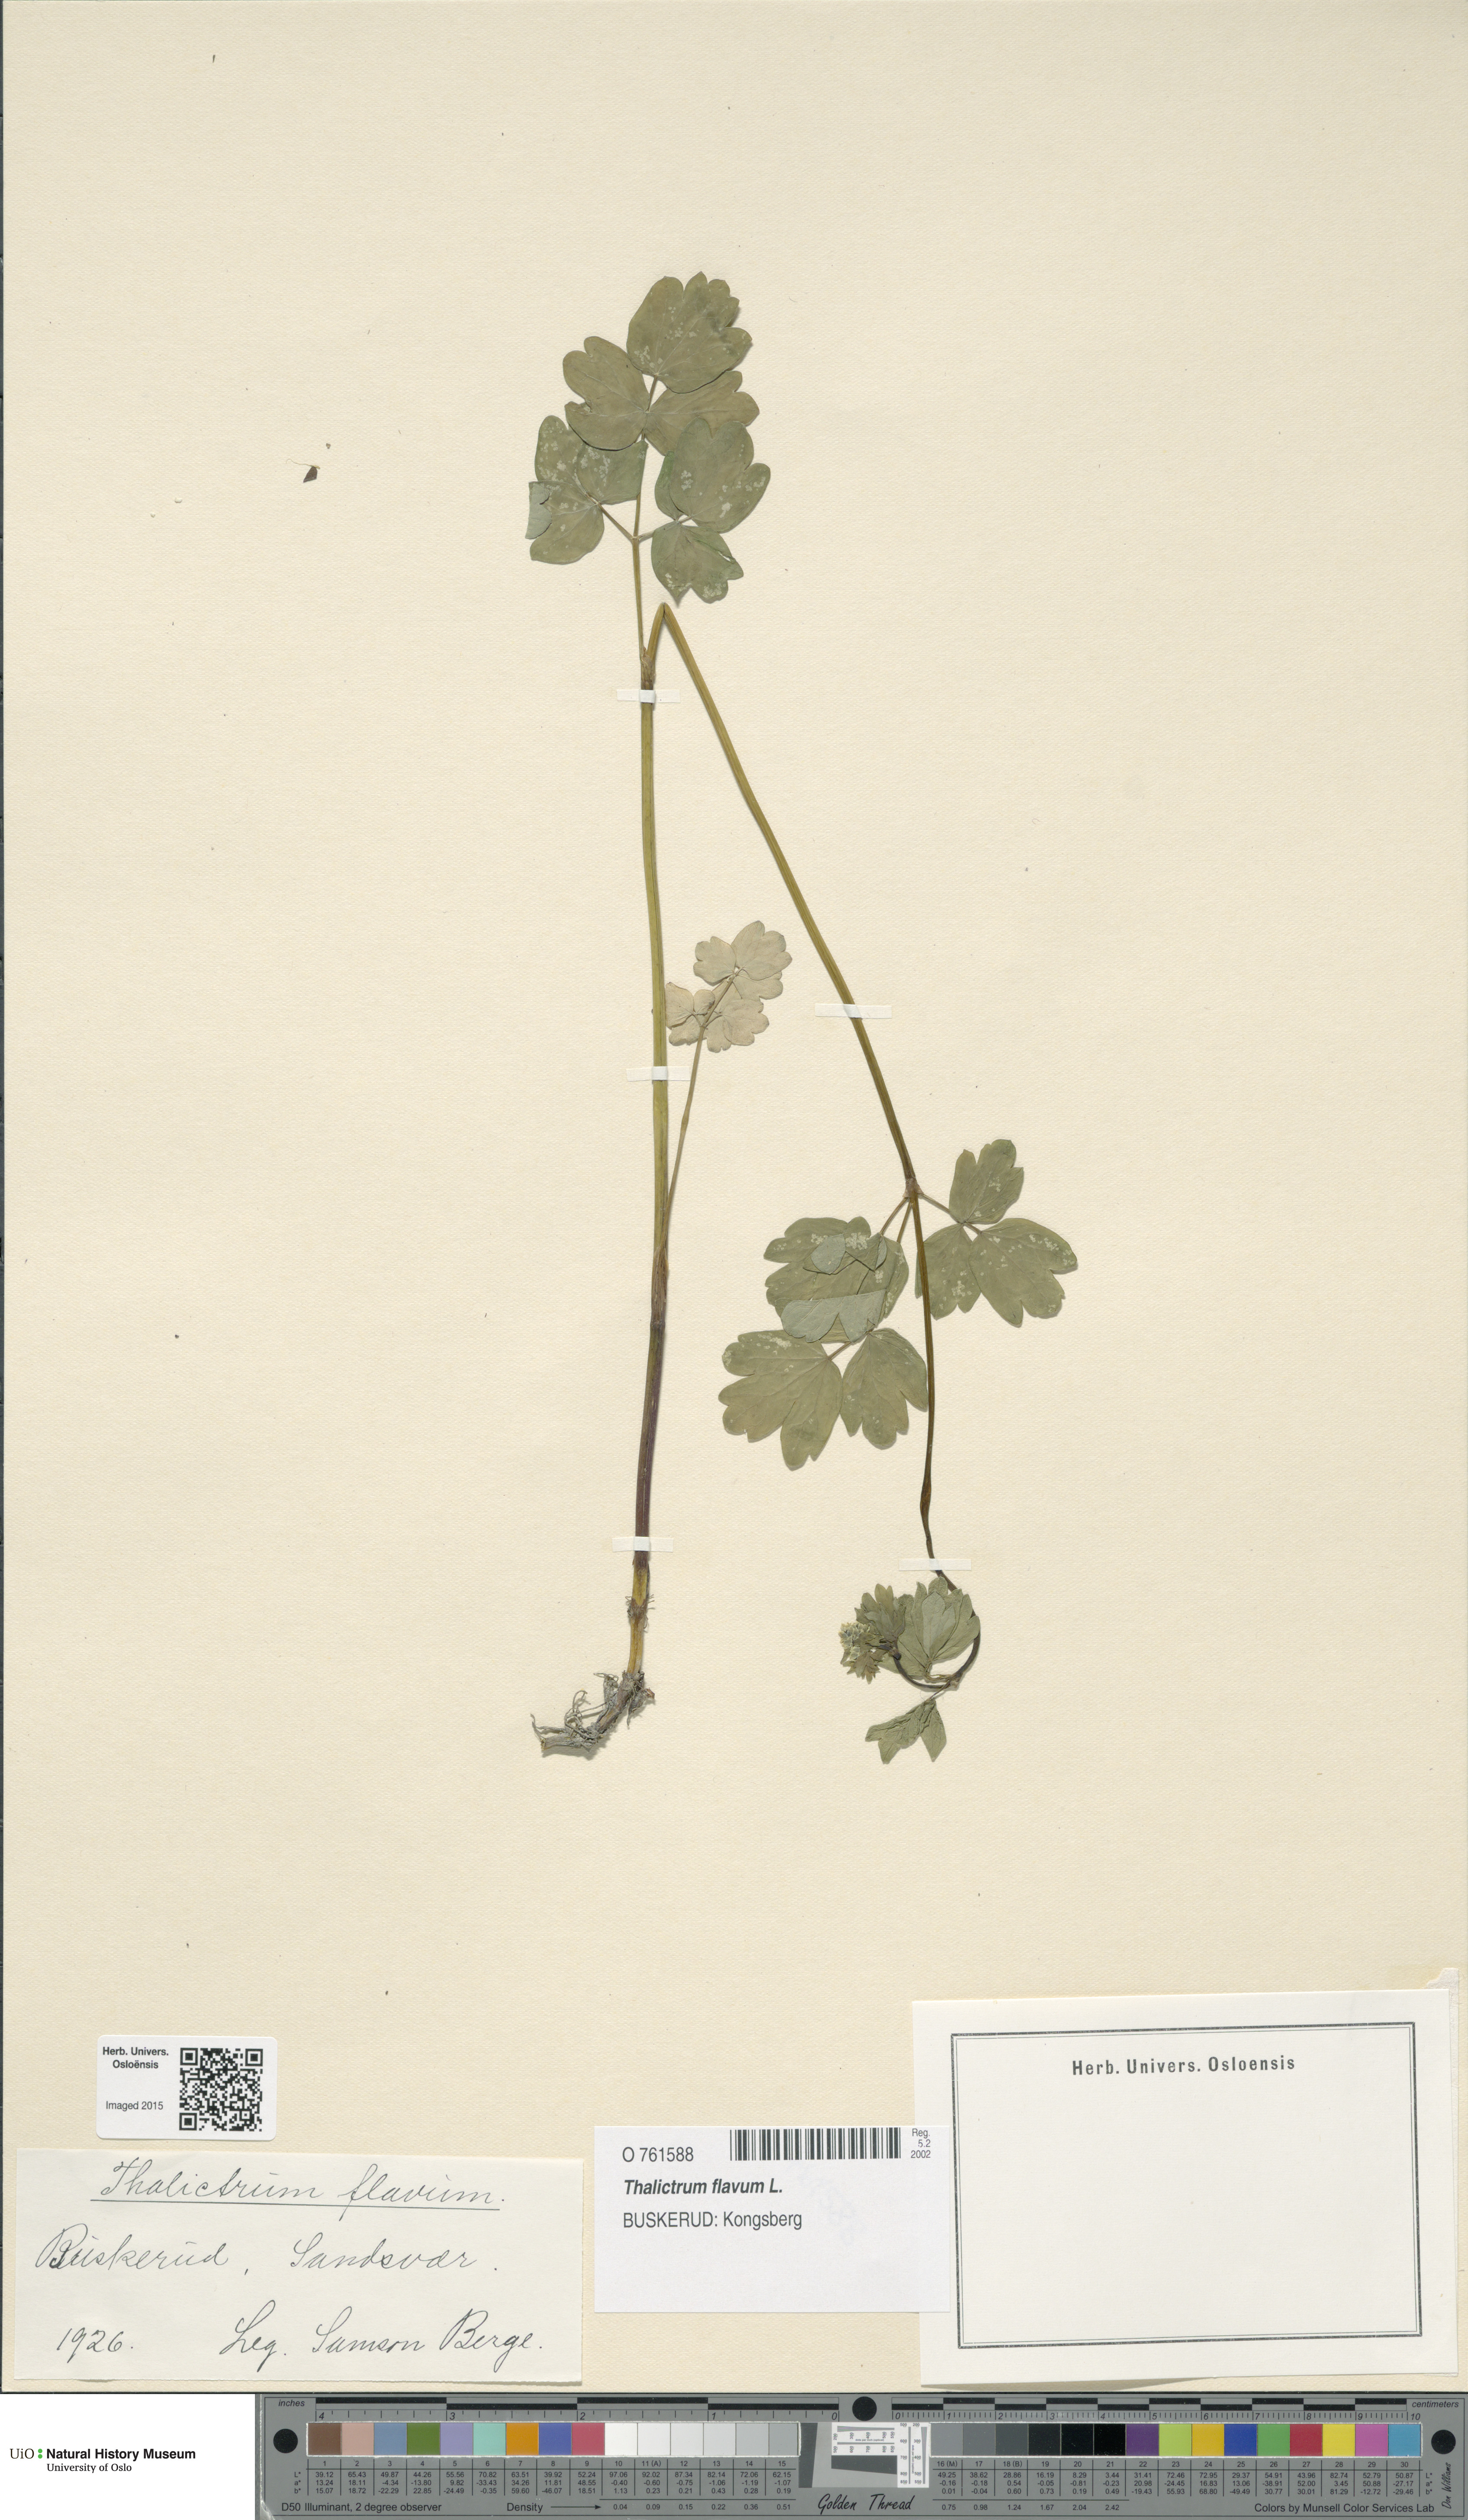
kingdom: Plantae
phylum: Tracheophyta
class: Magnoliopsida
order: Ranunculales
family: Ranunculaceae
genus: Thalictrum
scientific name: Thalictrum flavum
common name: Common meadow-rue
